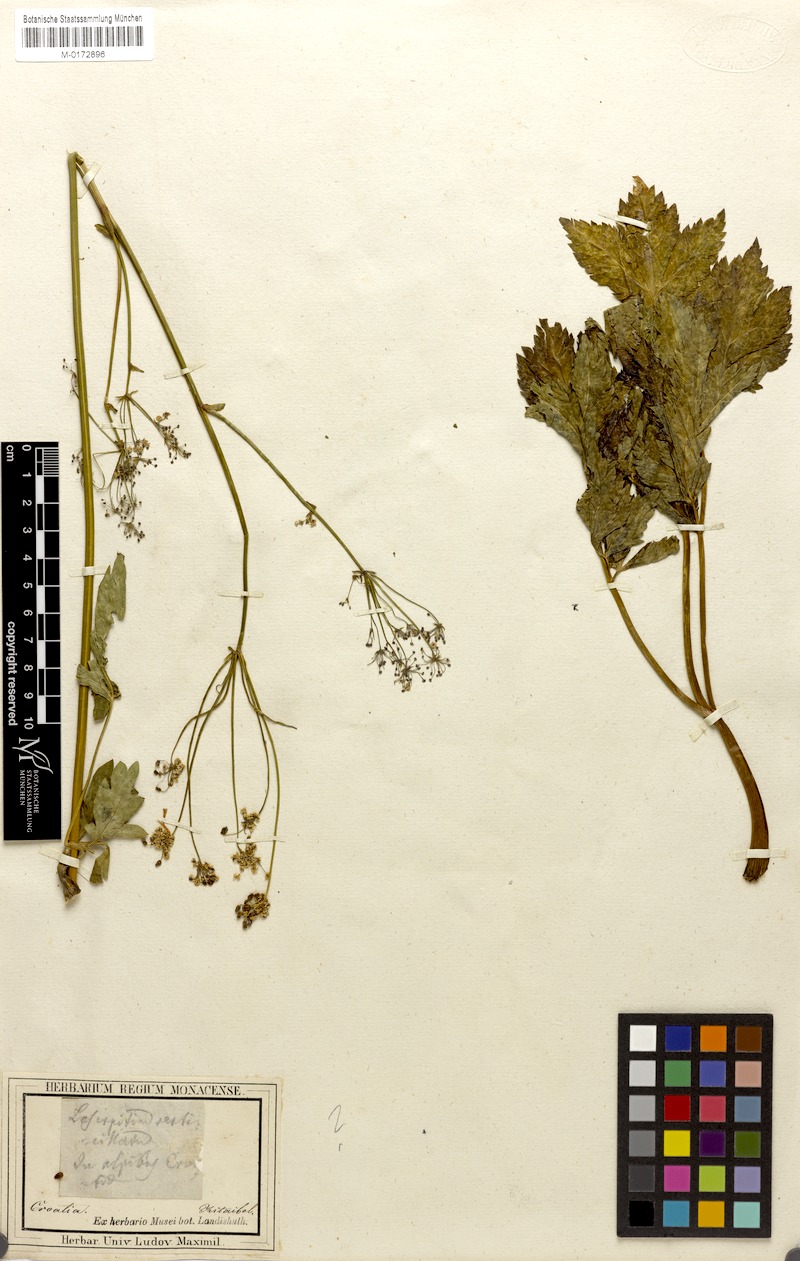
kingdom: Plantae
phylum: Tracheophyta
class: Magnoliopsida
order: Apiales
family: Apiaceae
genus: Trochiscanthes
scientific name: Trochiscanthes nodiflora
